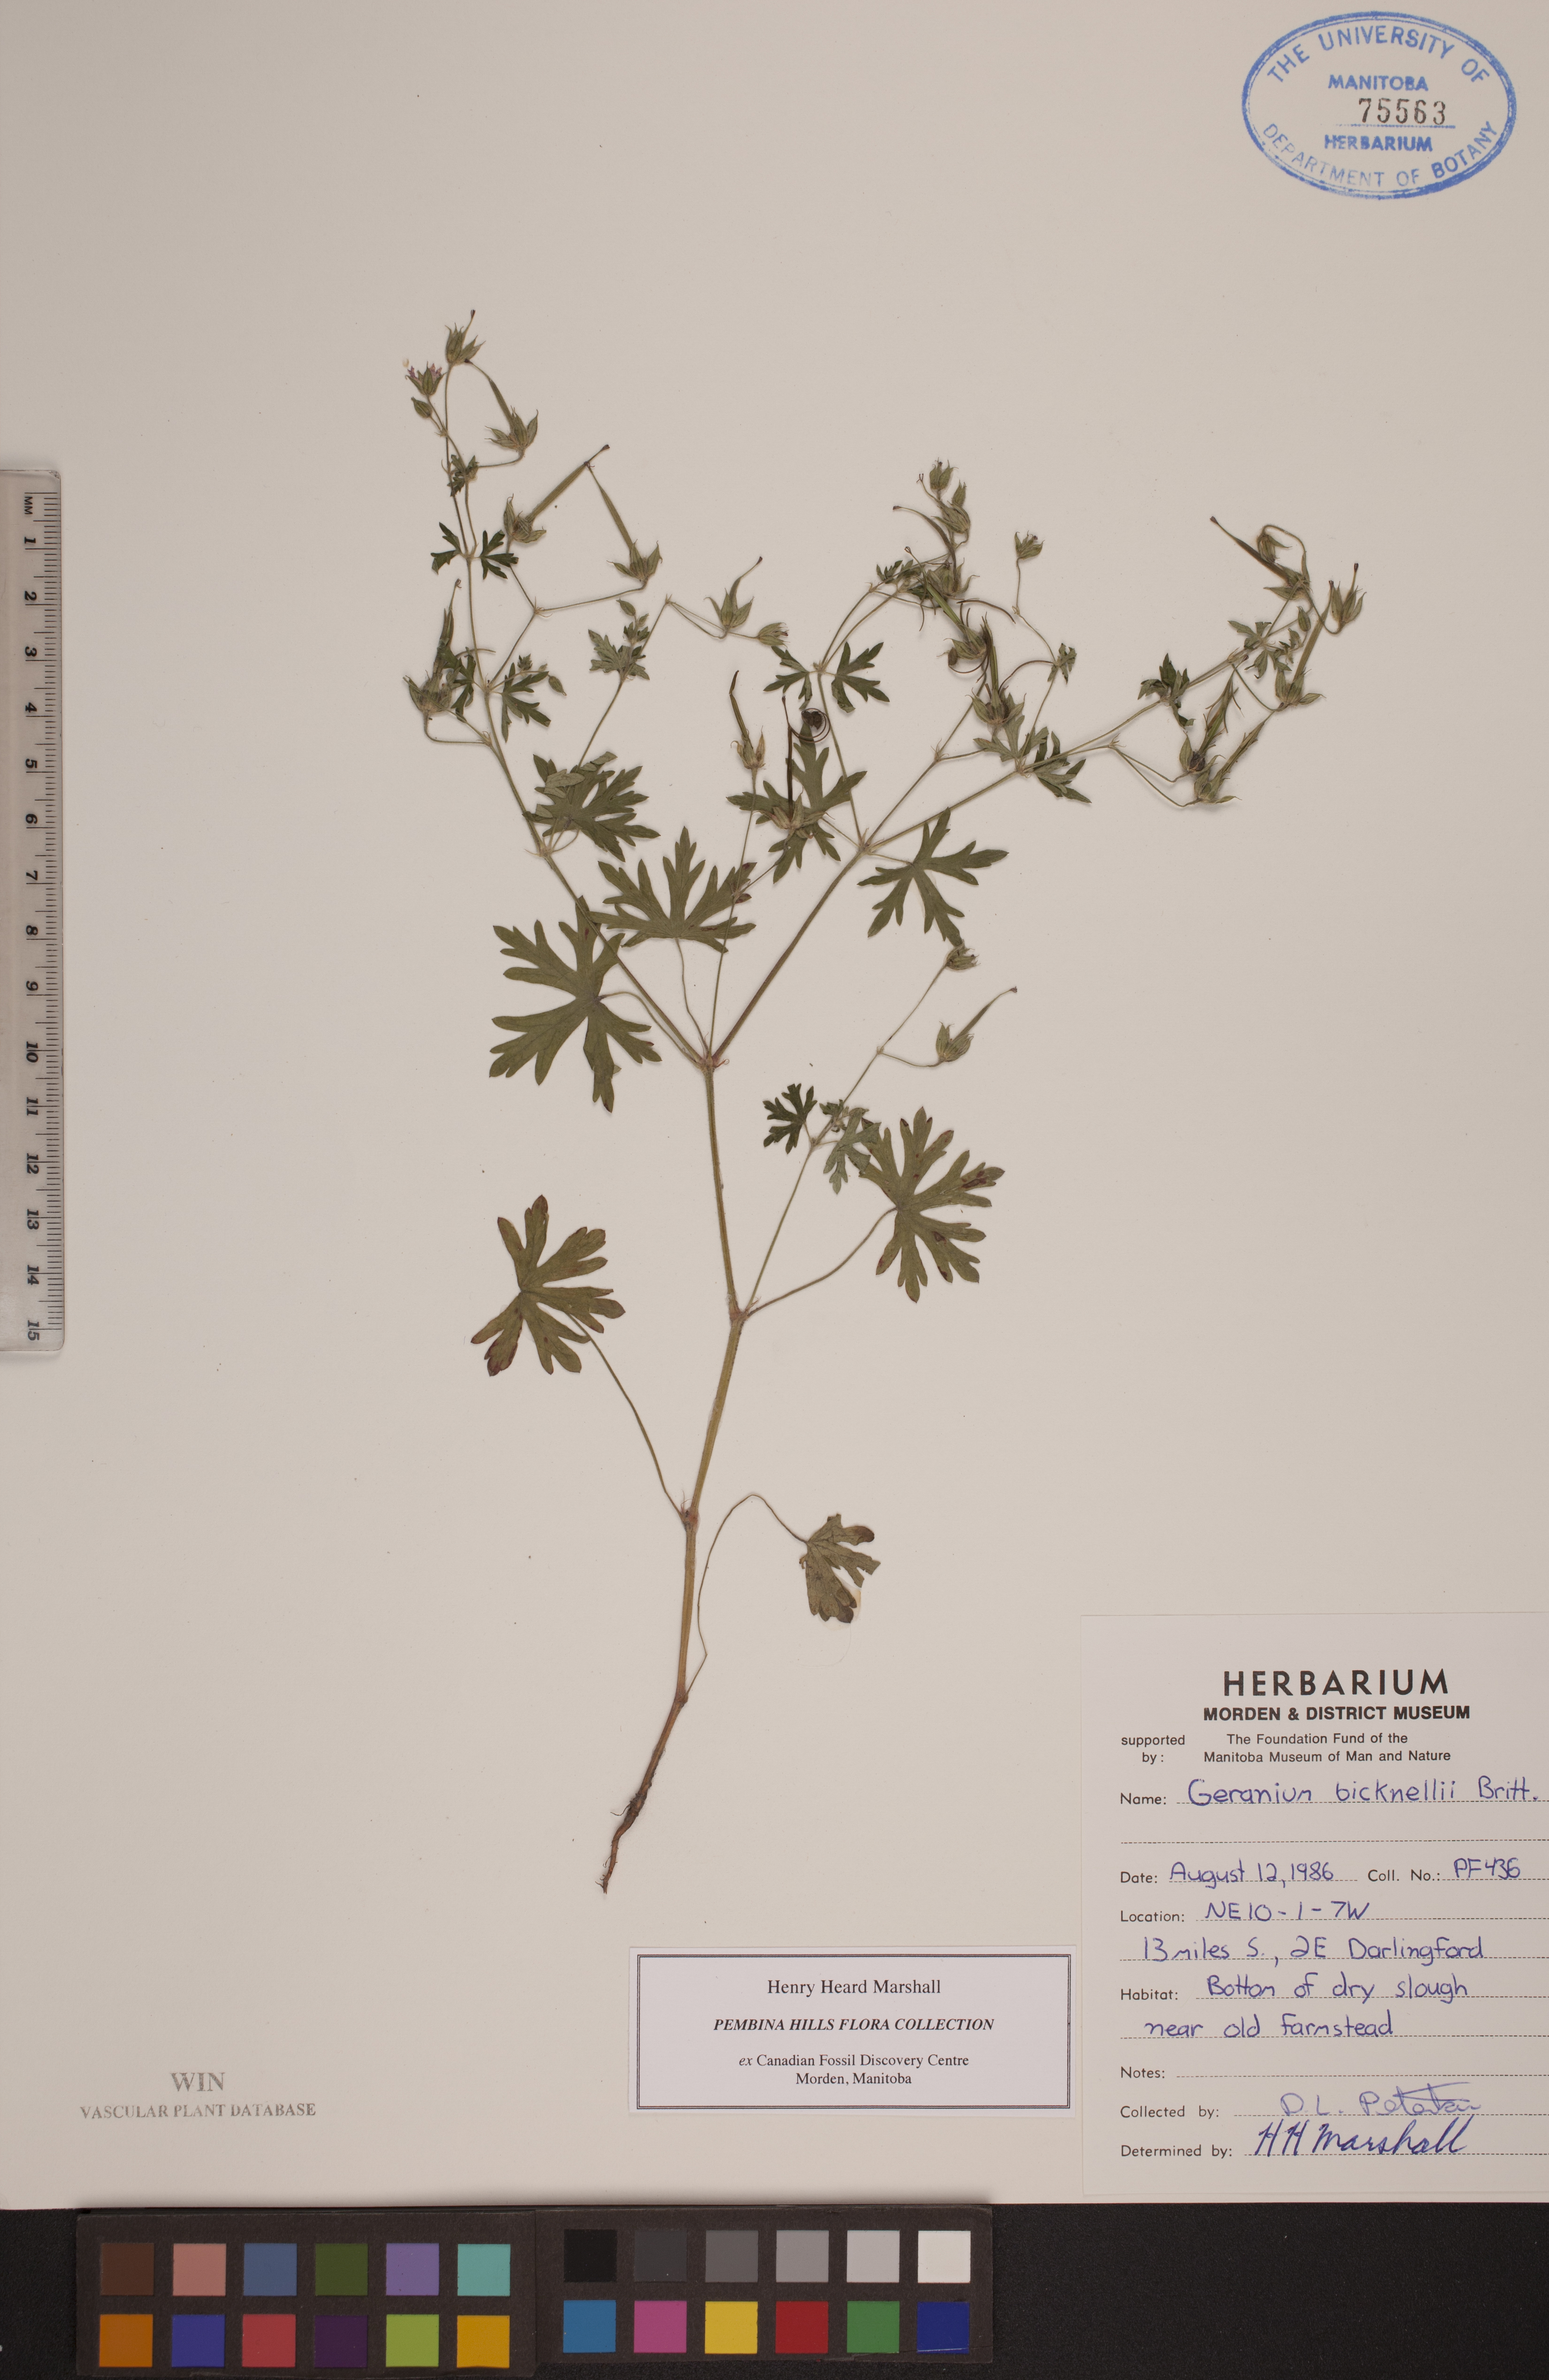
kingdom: Plantae
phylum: Tracheophyta
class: Magnoliopsida
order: Geraniales
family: Geraniaceae
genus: Geranium
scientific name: Geranium bicknellii
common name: Bicknell's cranesbill
